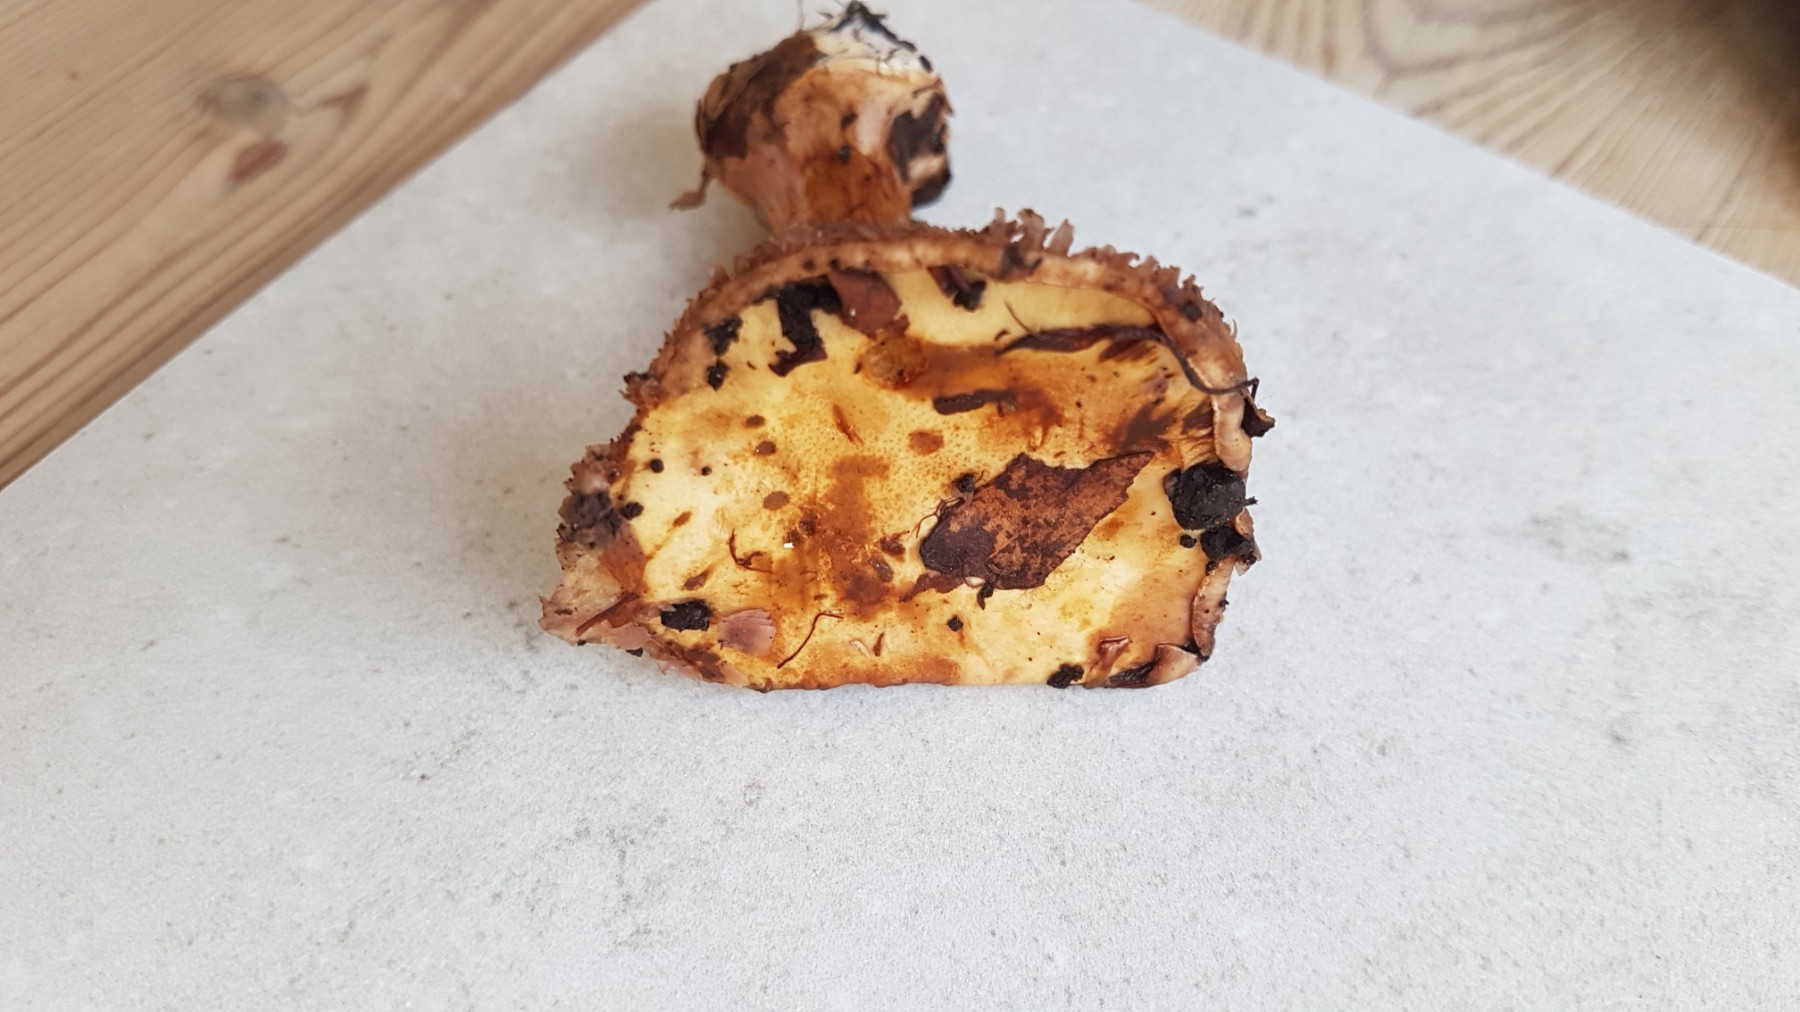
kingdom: Fungi
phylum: Basidiomycota
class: Agaricomycetes
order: Agaricales
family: Cortinariaceae
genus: Calonarius
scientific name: Calonarius insignibulbus
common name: kridt-slørhat
